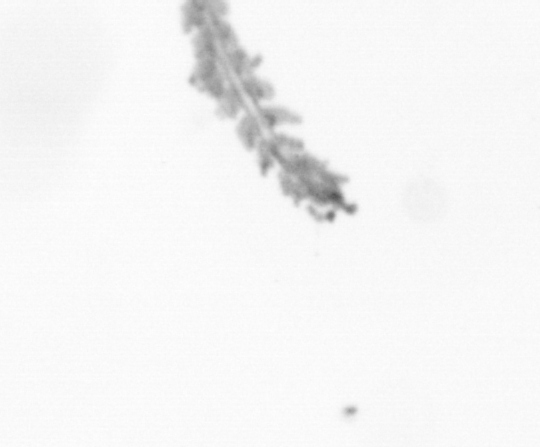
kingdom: Chromista
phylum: Ochrophyta
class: Bacillariophyceae
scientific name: Bacillariophyceae
